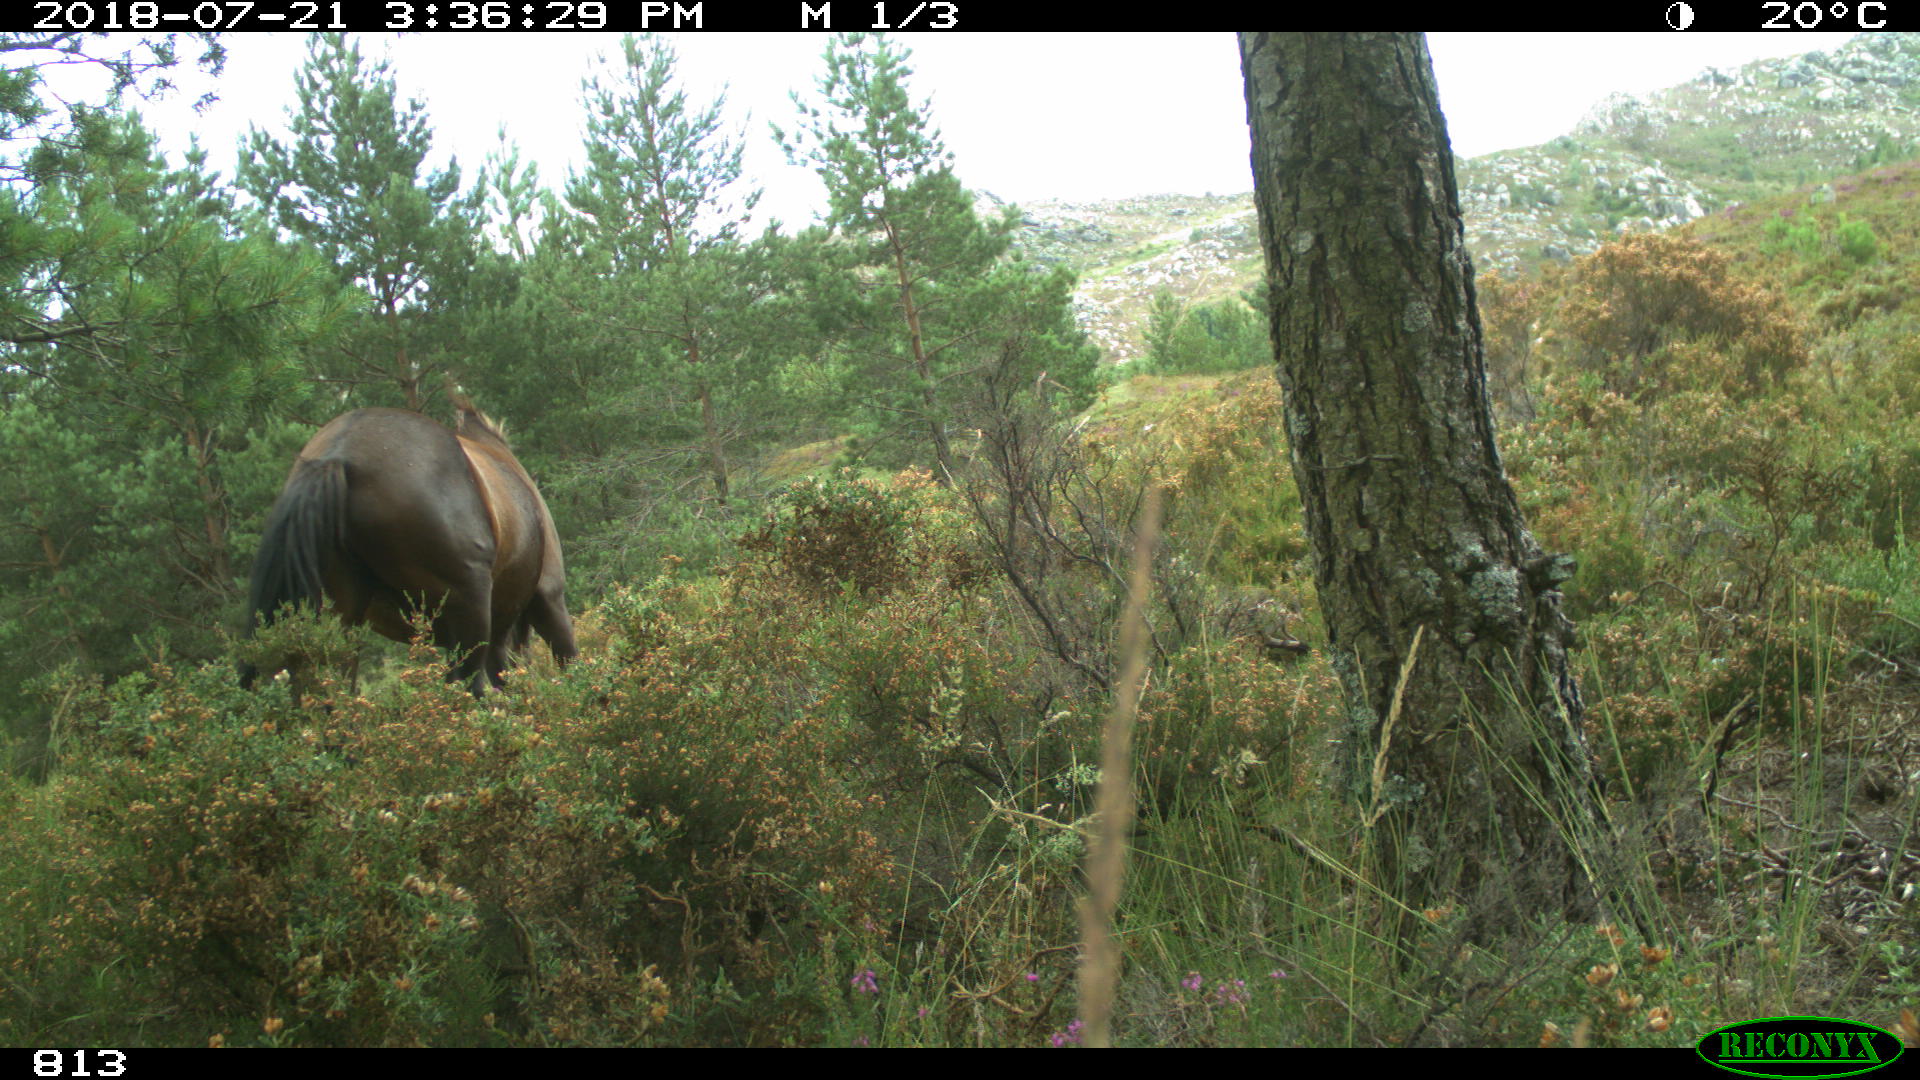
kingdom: Animalia
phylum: Chordata
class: Mammalia
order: Perissodactyla
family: Equidae
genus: Equus
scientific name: Equus caballus
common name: Horse
